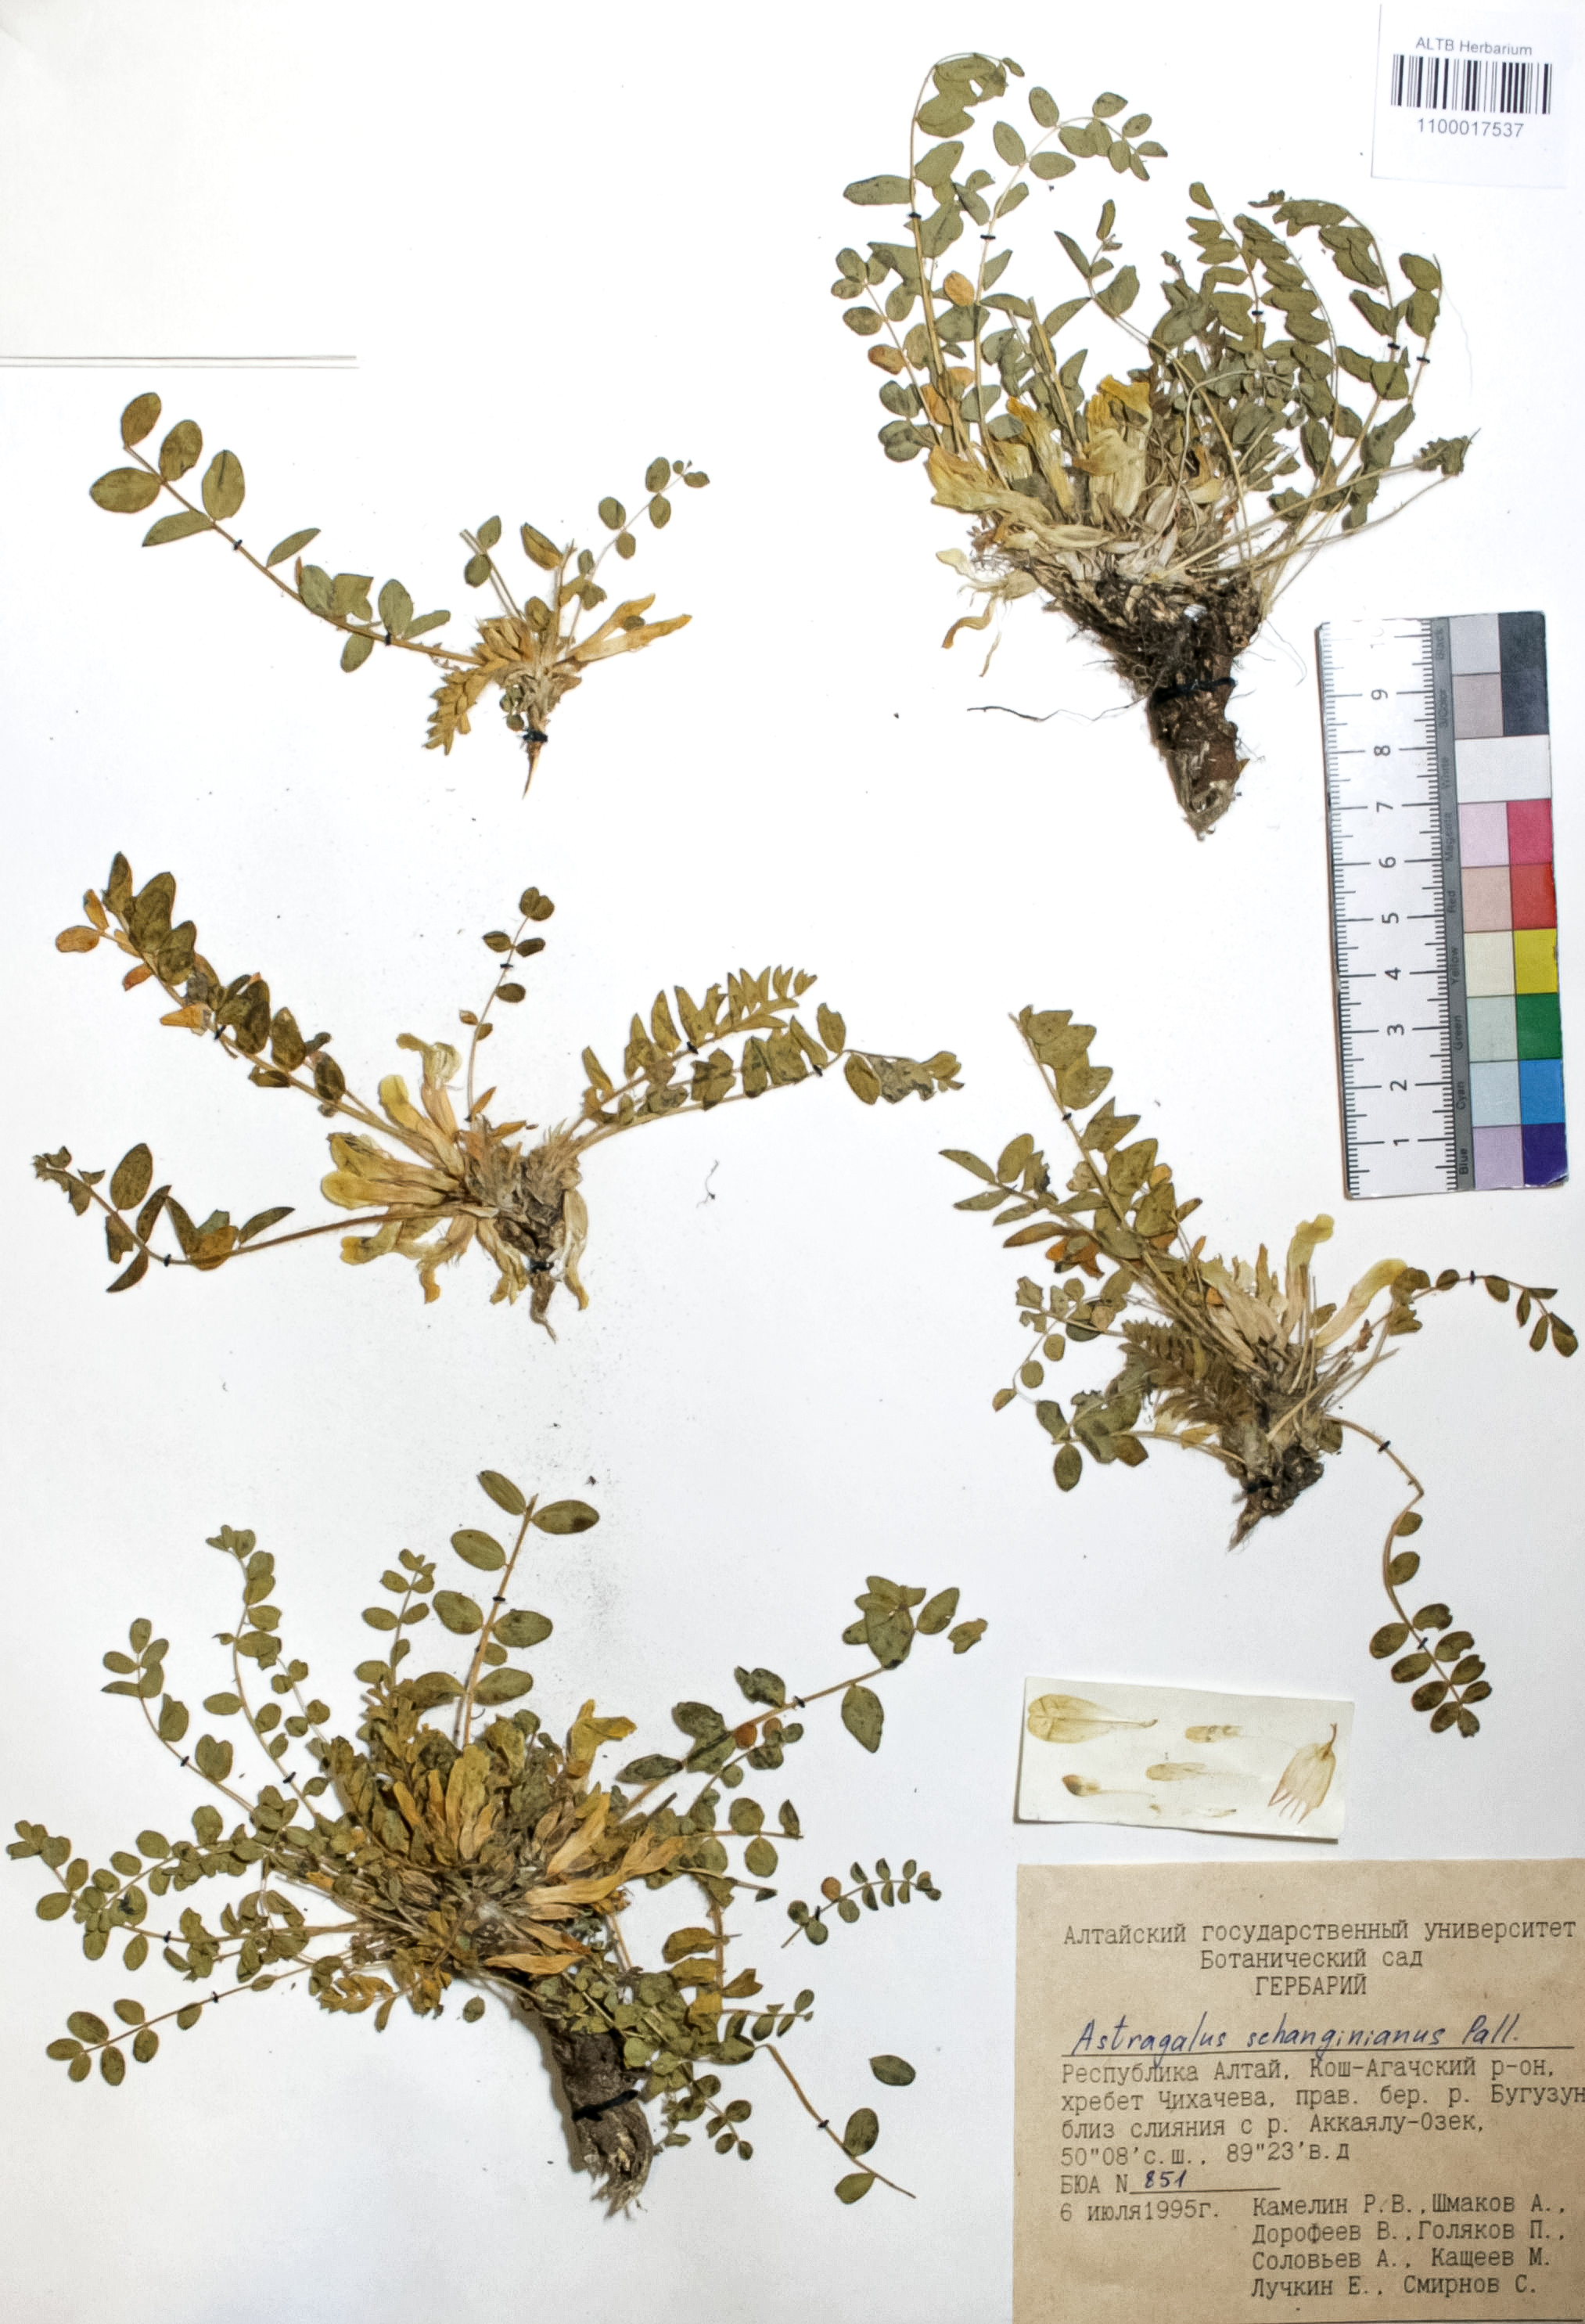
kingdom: Plantae
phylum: Tracheophyta
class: Magnoliopsida
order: Fabales
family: Fabaceae
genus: Astragalus
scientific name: Astragalus schanginianus
